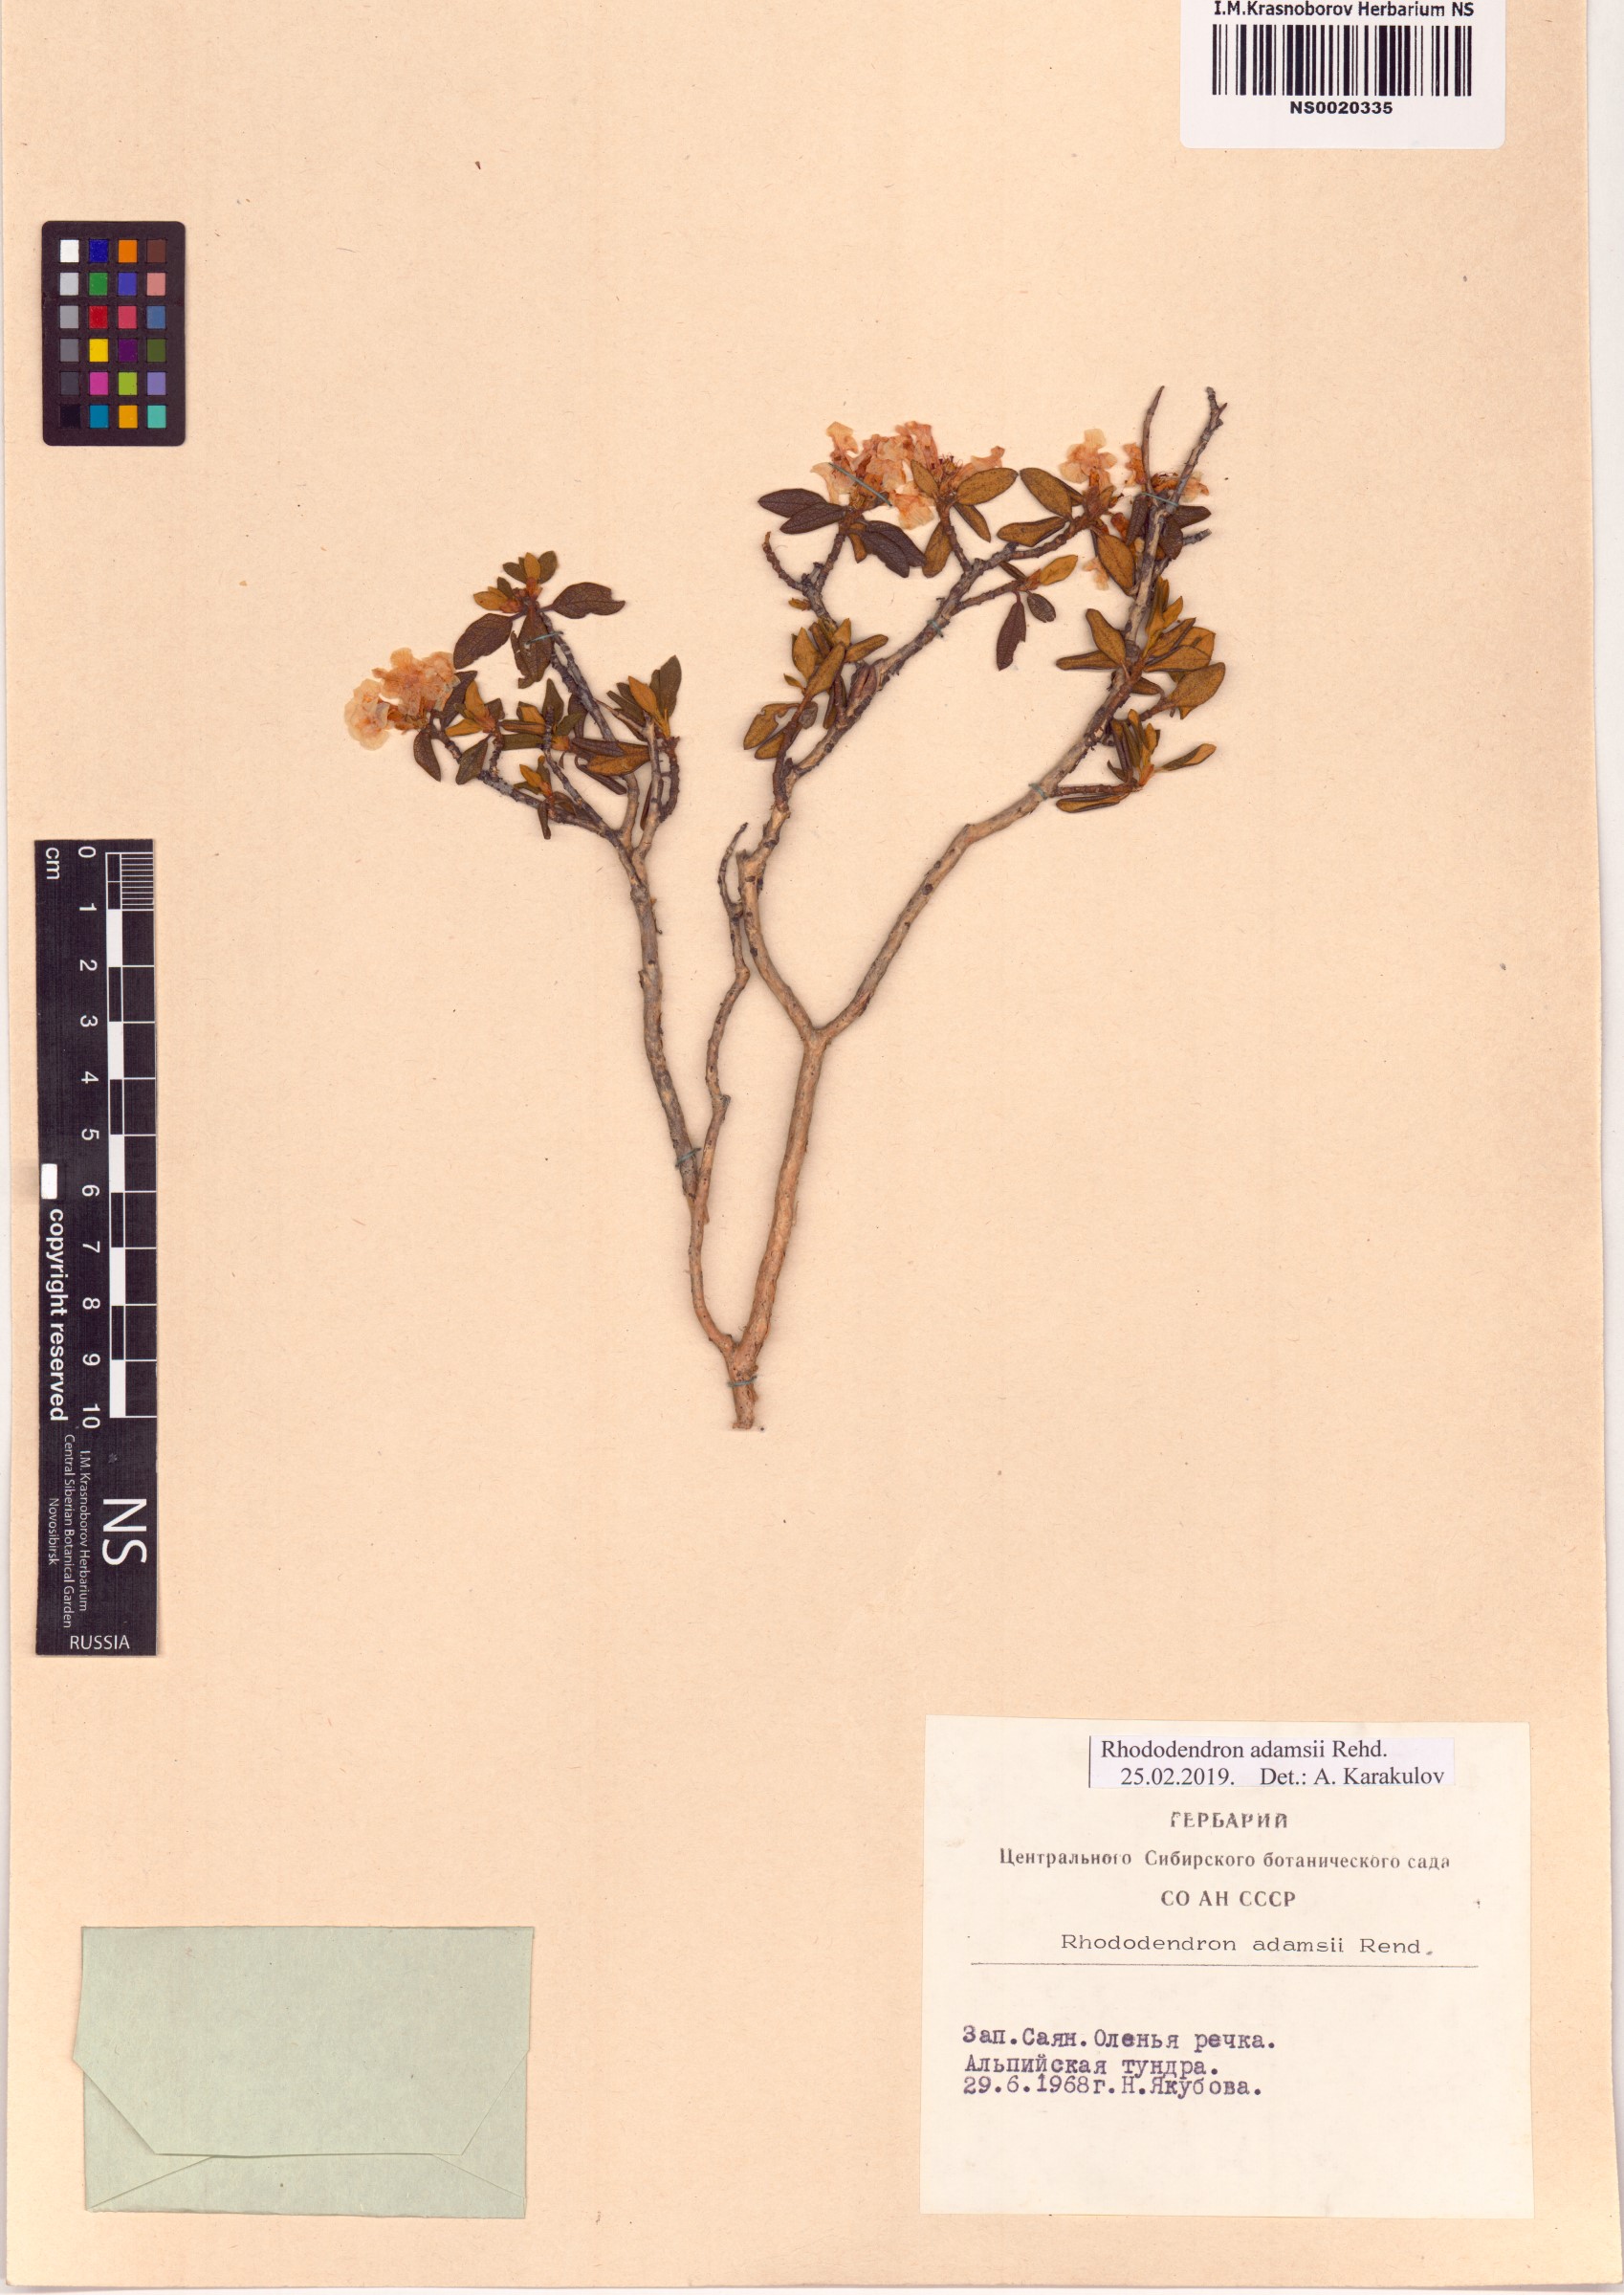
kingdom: Plantae
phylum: Tracheophyta
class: Magnoliopsida
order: Ericales
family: Ericaceae
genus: Rhododendron
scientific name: Rhododendron adamsii
